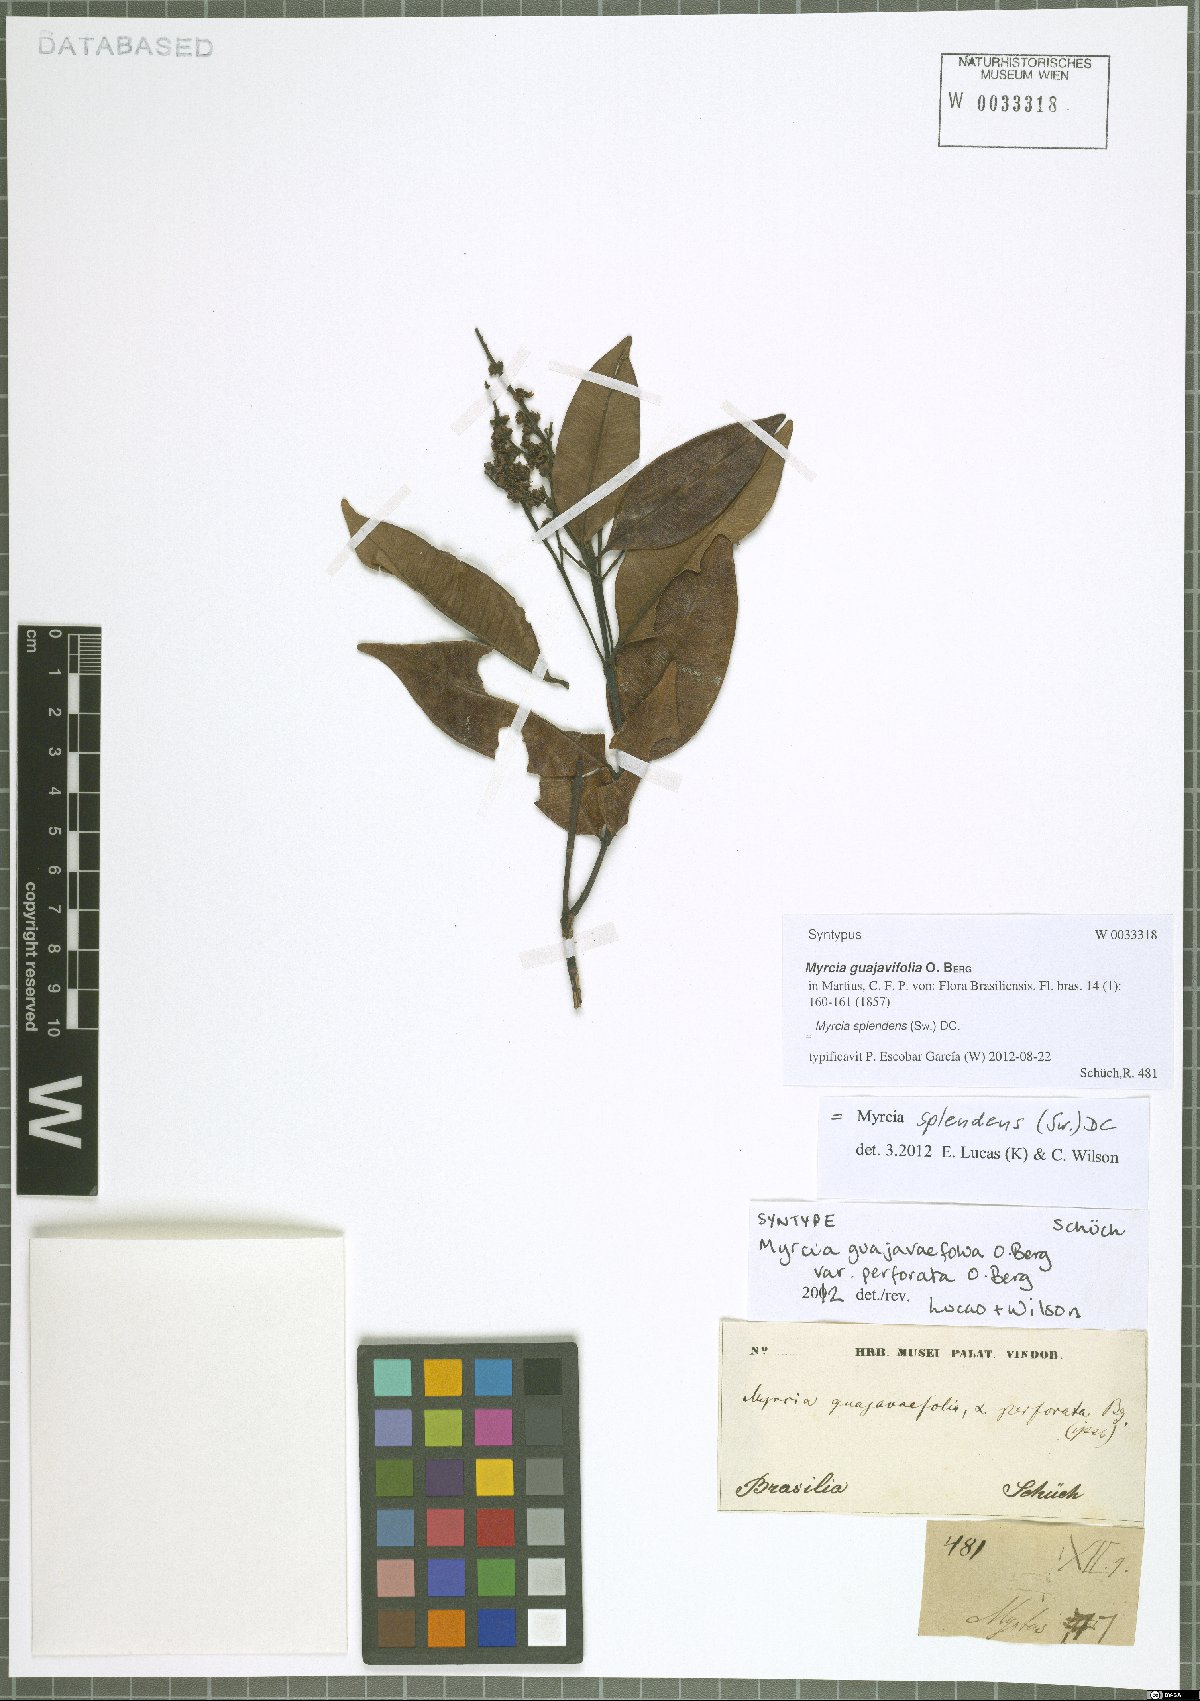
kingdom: Plantae
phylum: Tracheophyta
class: Magnoliopsida
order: Myrtales
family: Myrtaceae
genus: Myrcia
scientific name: Myrcia splendens
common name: Surinam cherry
